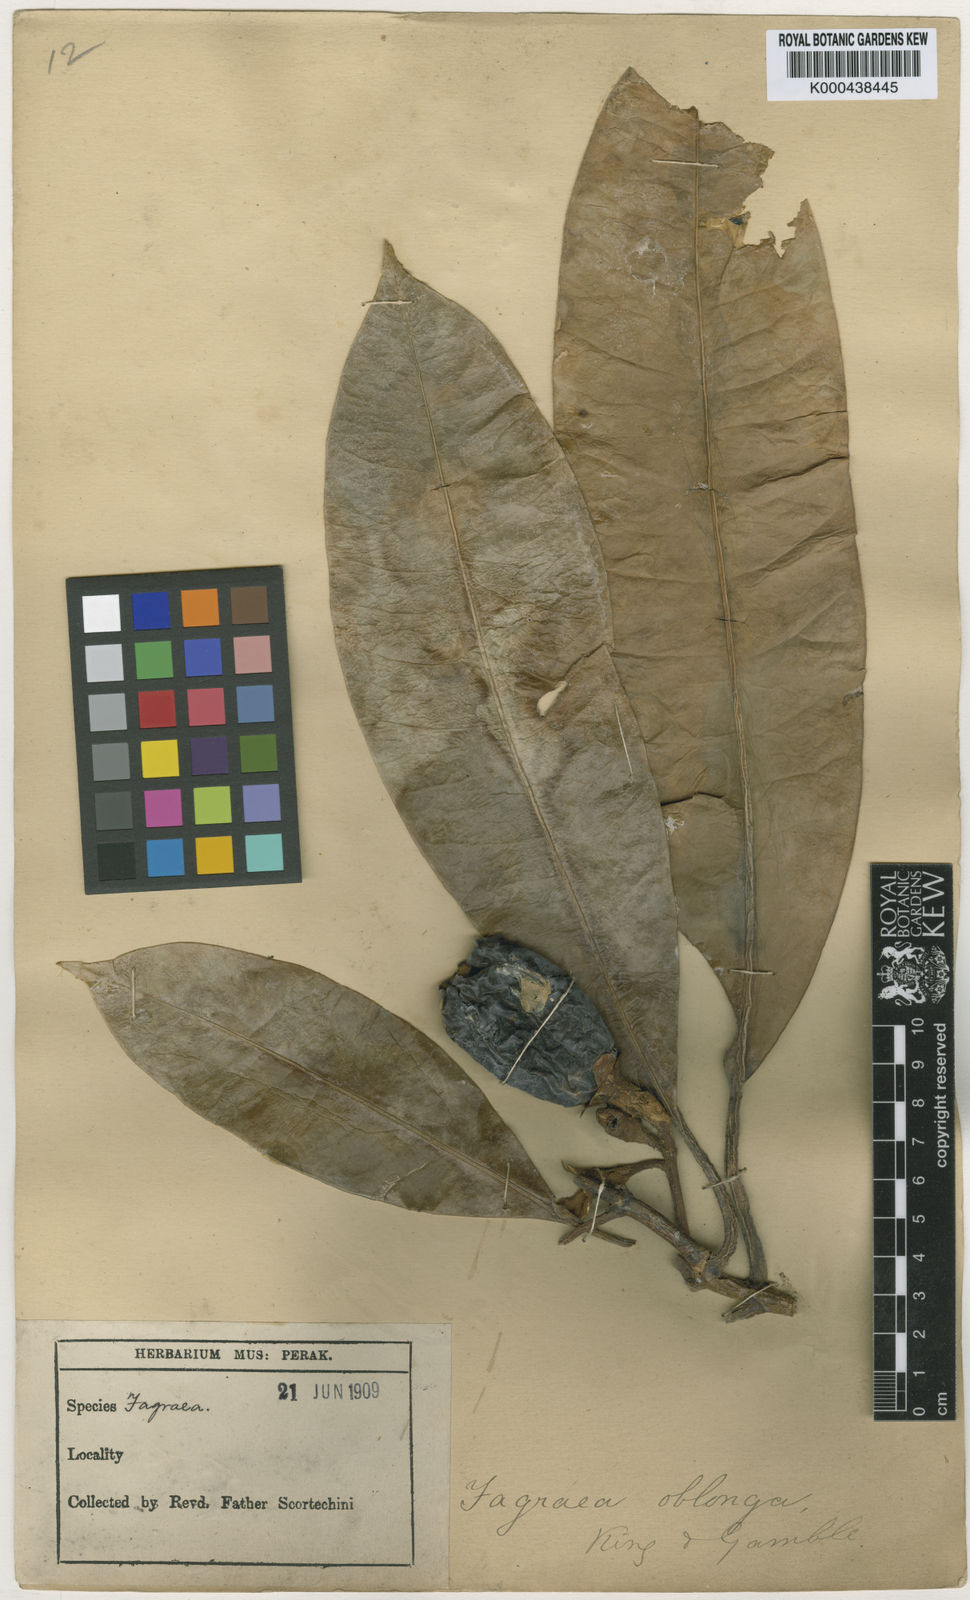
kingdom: Plantae
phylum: Tracheophyta
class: Magnoliopsida
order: Gentianales
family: Gentianaceae
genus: Fagraea
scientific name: Fagraea oblonga
